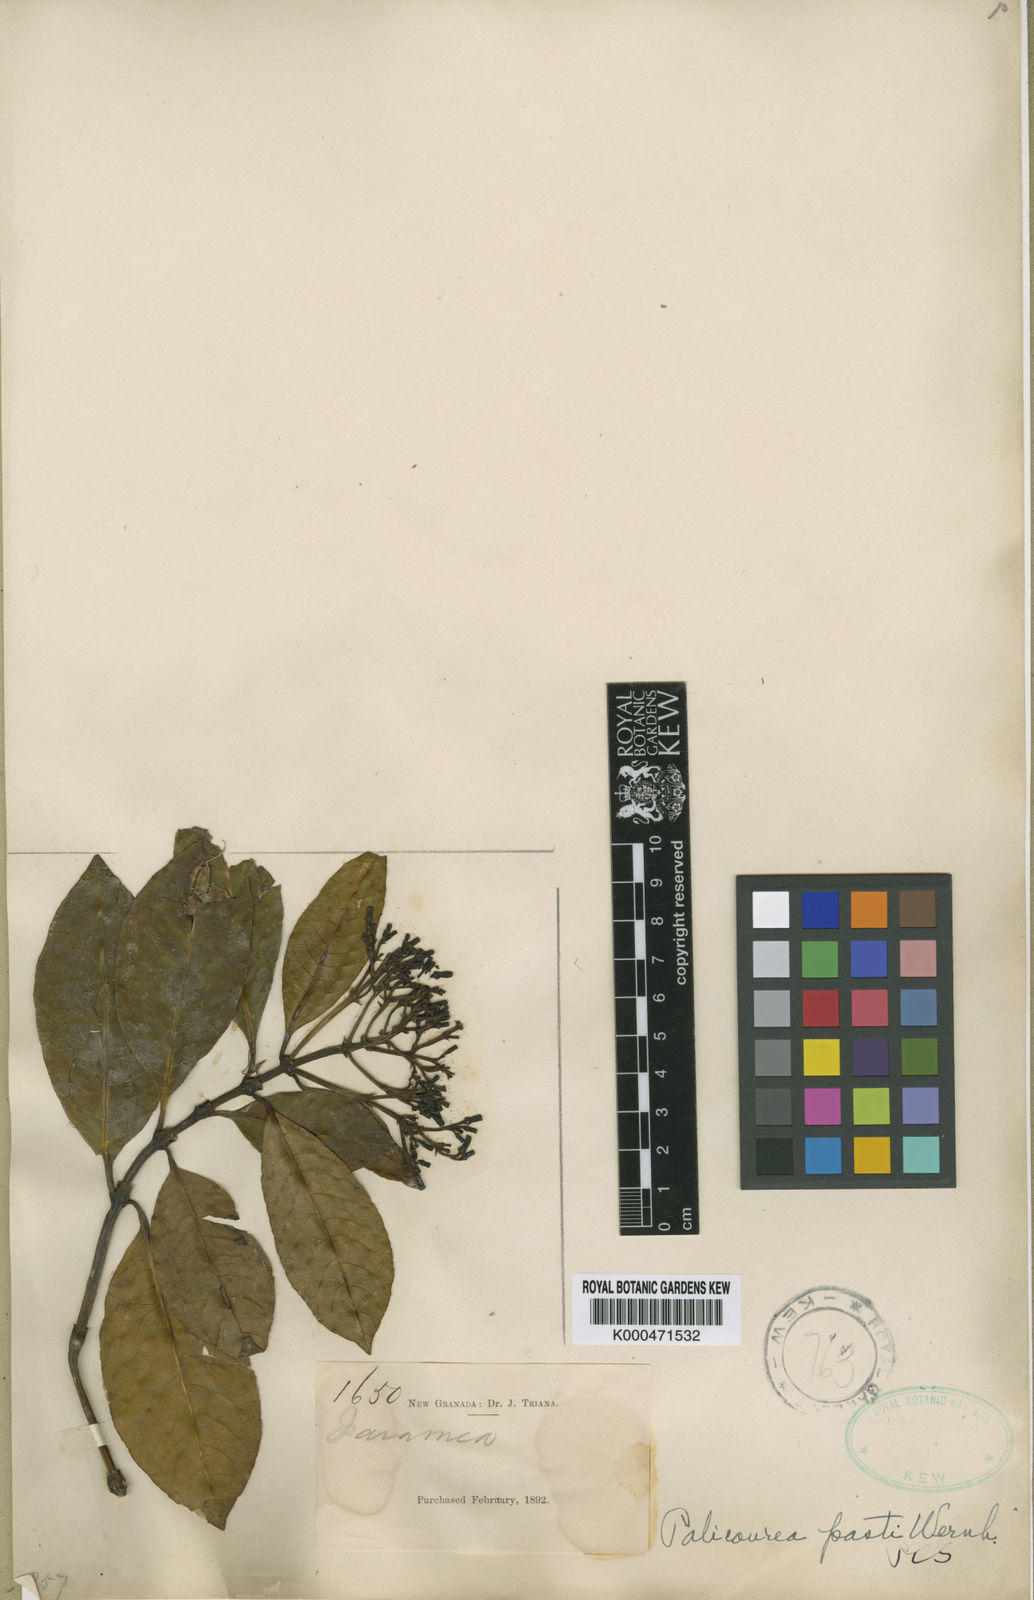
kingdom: Plantae
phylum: Tracheophyta
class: Magnoliopsida
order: Gentianales
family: Rubiaceae
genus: Palicourea
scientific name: Palicourea apicata
